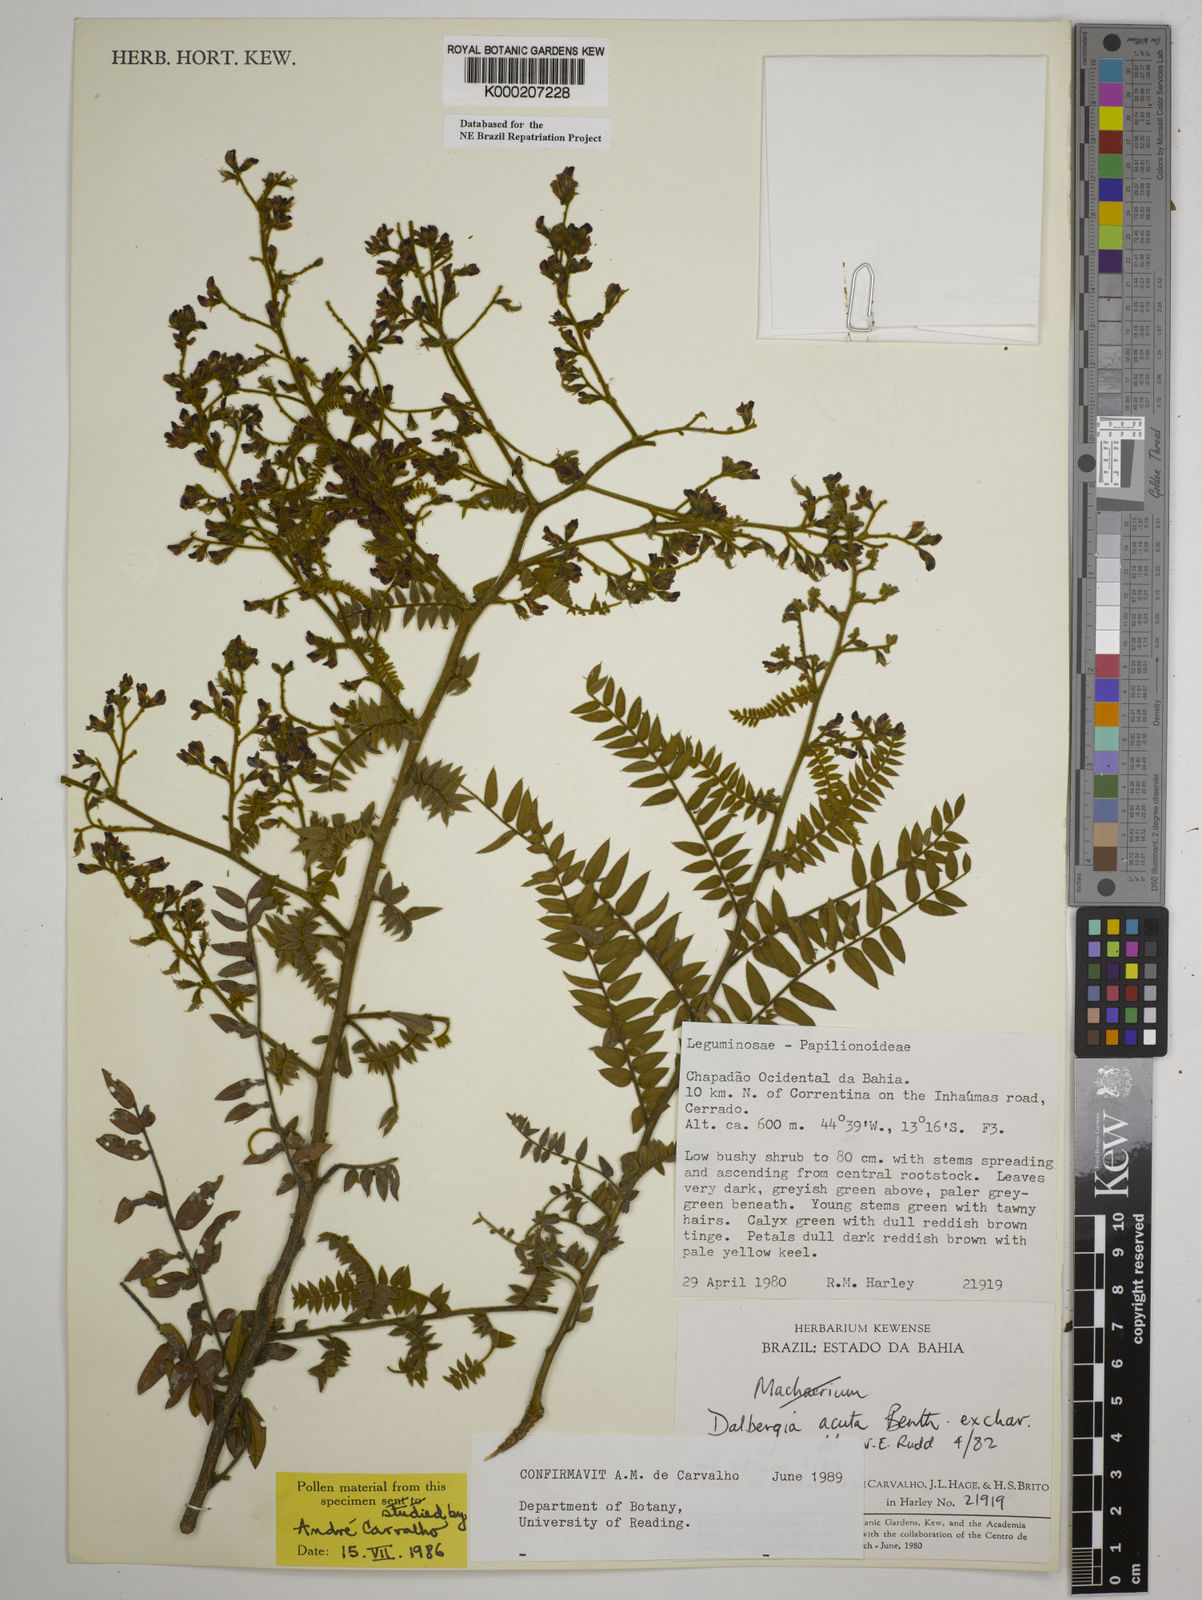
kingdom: Plantae
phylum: Tracheophyta
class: Magnoliopsida
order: Fabales
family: Fabaceae
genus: Dalbergia
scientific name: Dalbergia acuta
